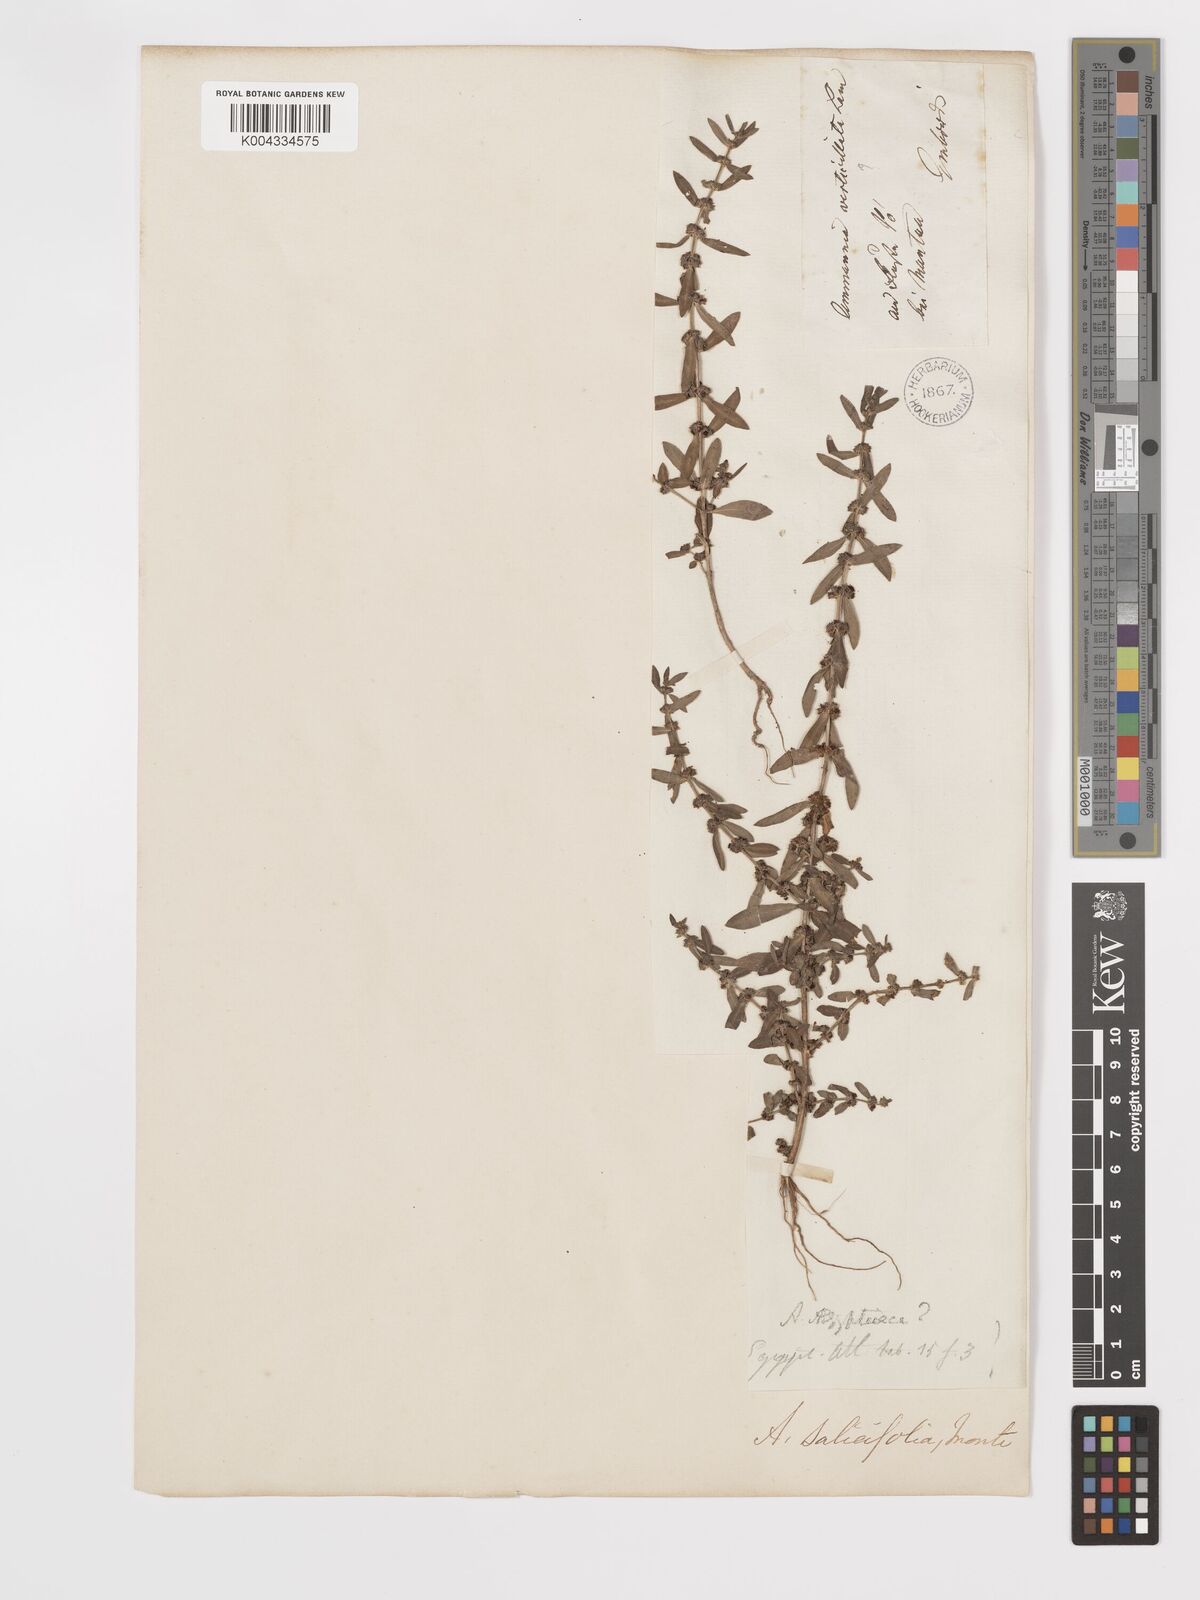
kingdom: Plantae
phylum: Tracheophyta
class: Magnoliopsida
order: Myrtales
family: Lythraceae
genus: Ammannia
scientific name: Ammannia baccifera
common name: Blistering ammania
